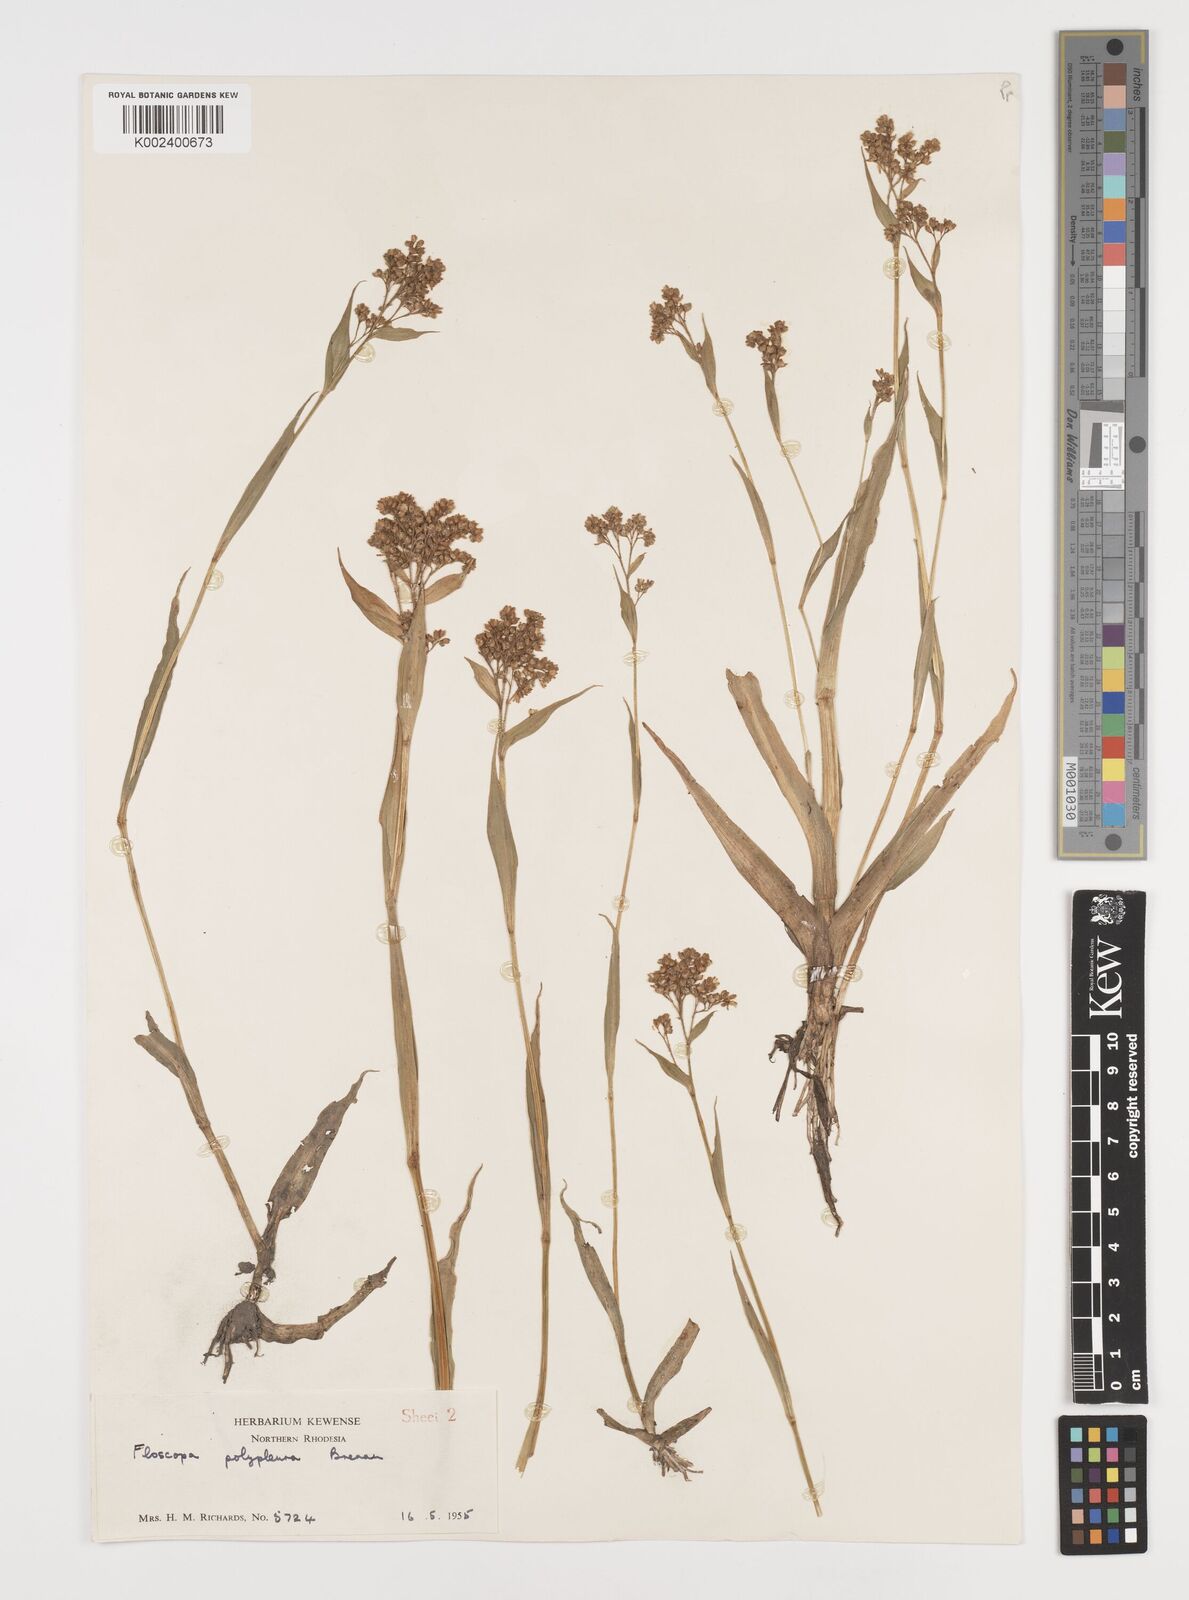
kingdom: Plantae
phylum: Tracheophyta
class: Liliopsida
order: Commelinales
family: Commelinaceae
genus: Floscopa
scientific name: Floscopa polypleura
